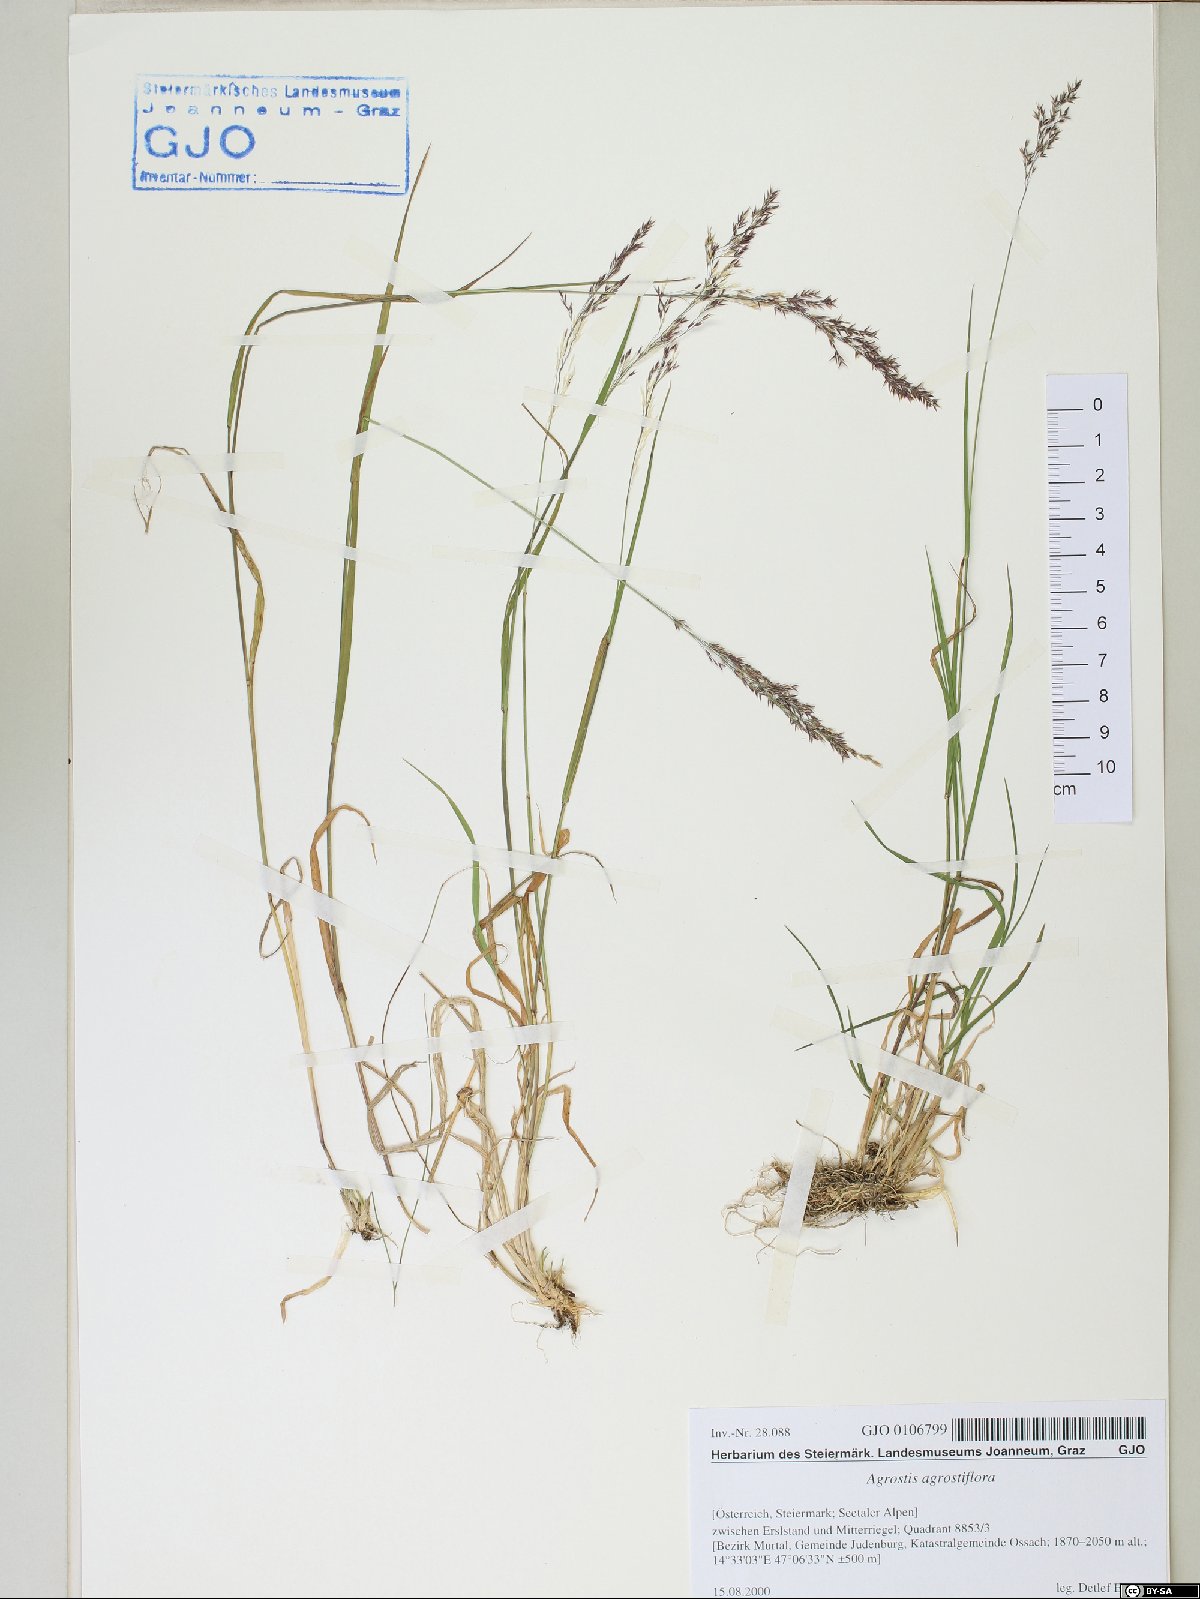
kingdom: Plantae
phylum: Tracheophyta
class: Liliopsida
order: Poales
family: Poaceae
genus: Agrostis
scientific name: Agrostis schraderiana
